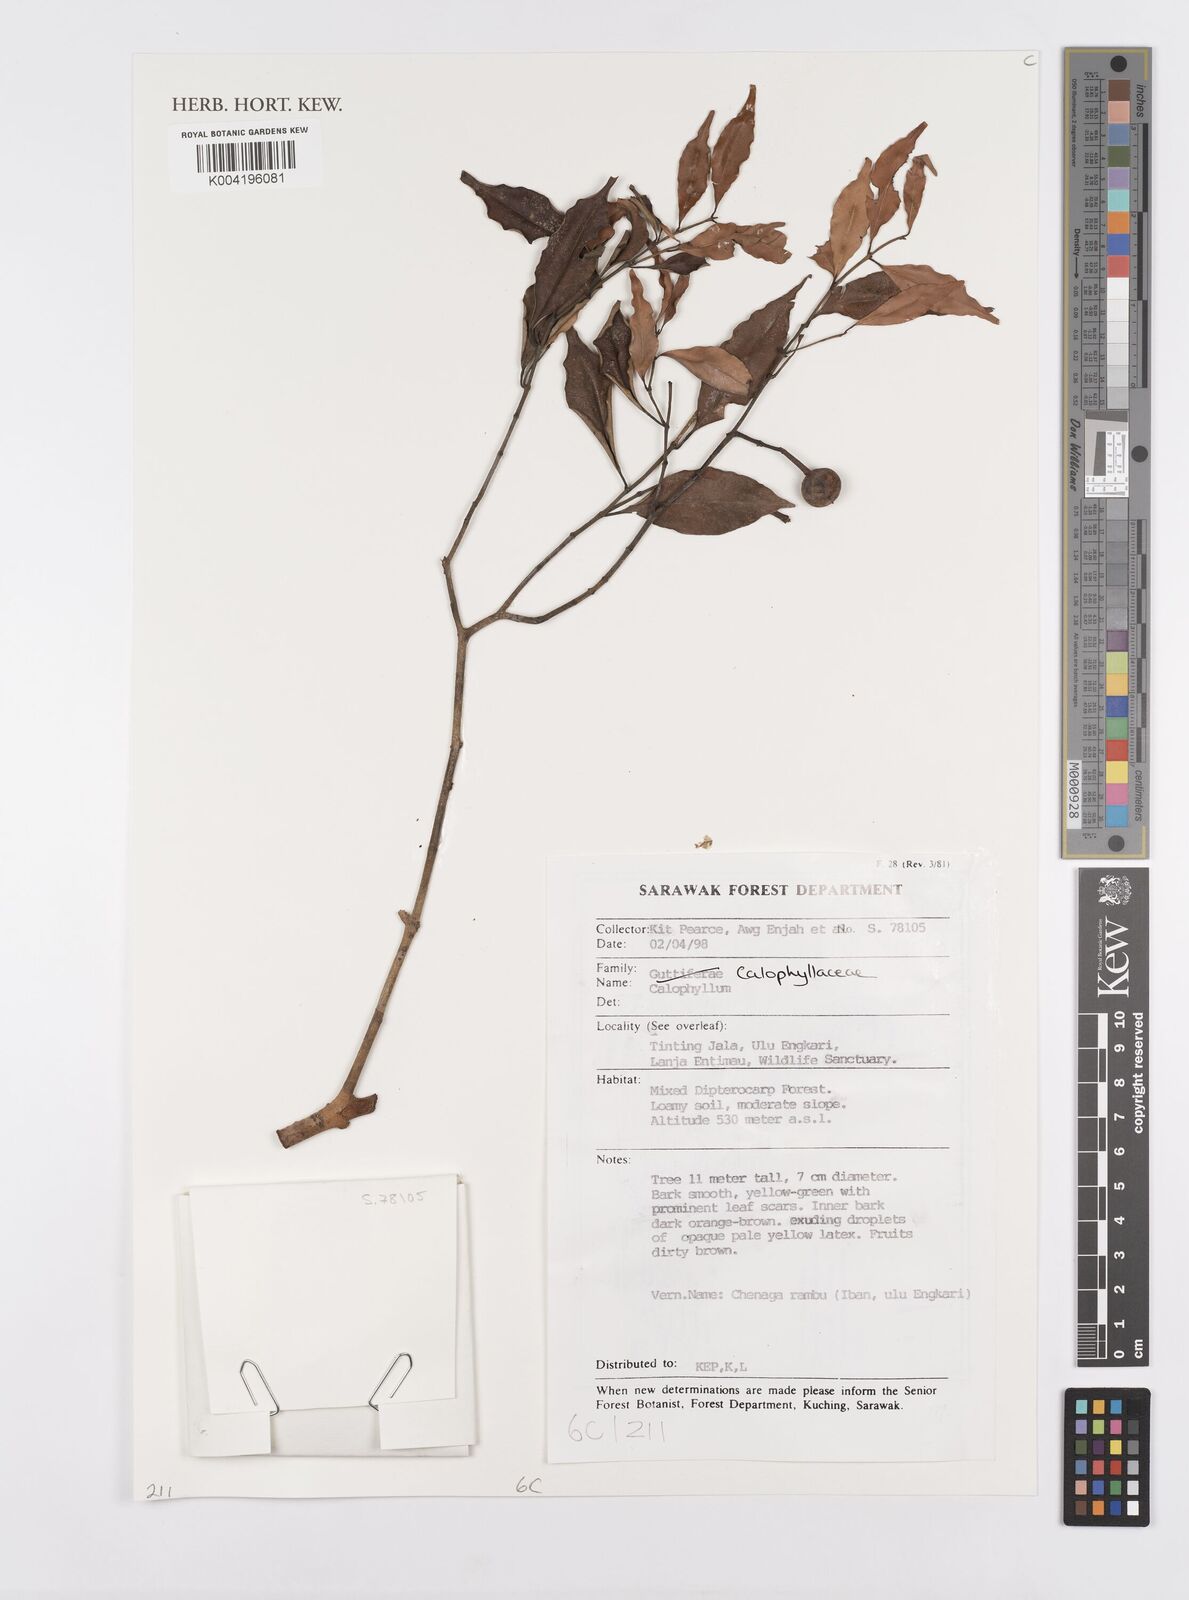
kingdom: Plantae
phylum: Tracheophyta
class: Magnoliopsida
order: Malpighiales
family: Calophyllaceae
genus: Calophyllum
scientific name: Calophyllum
